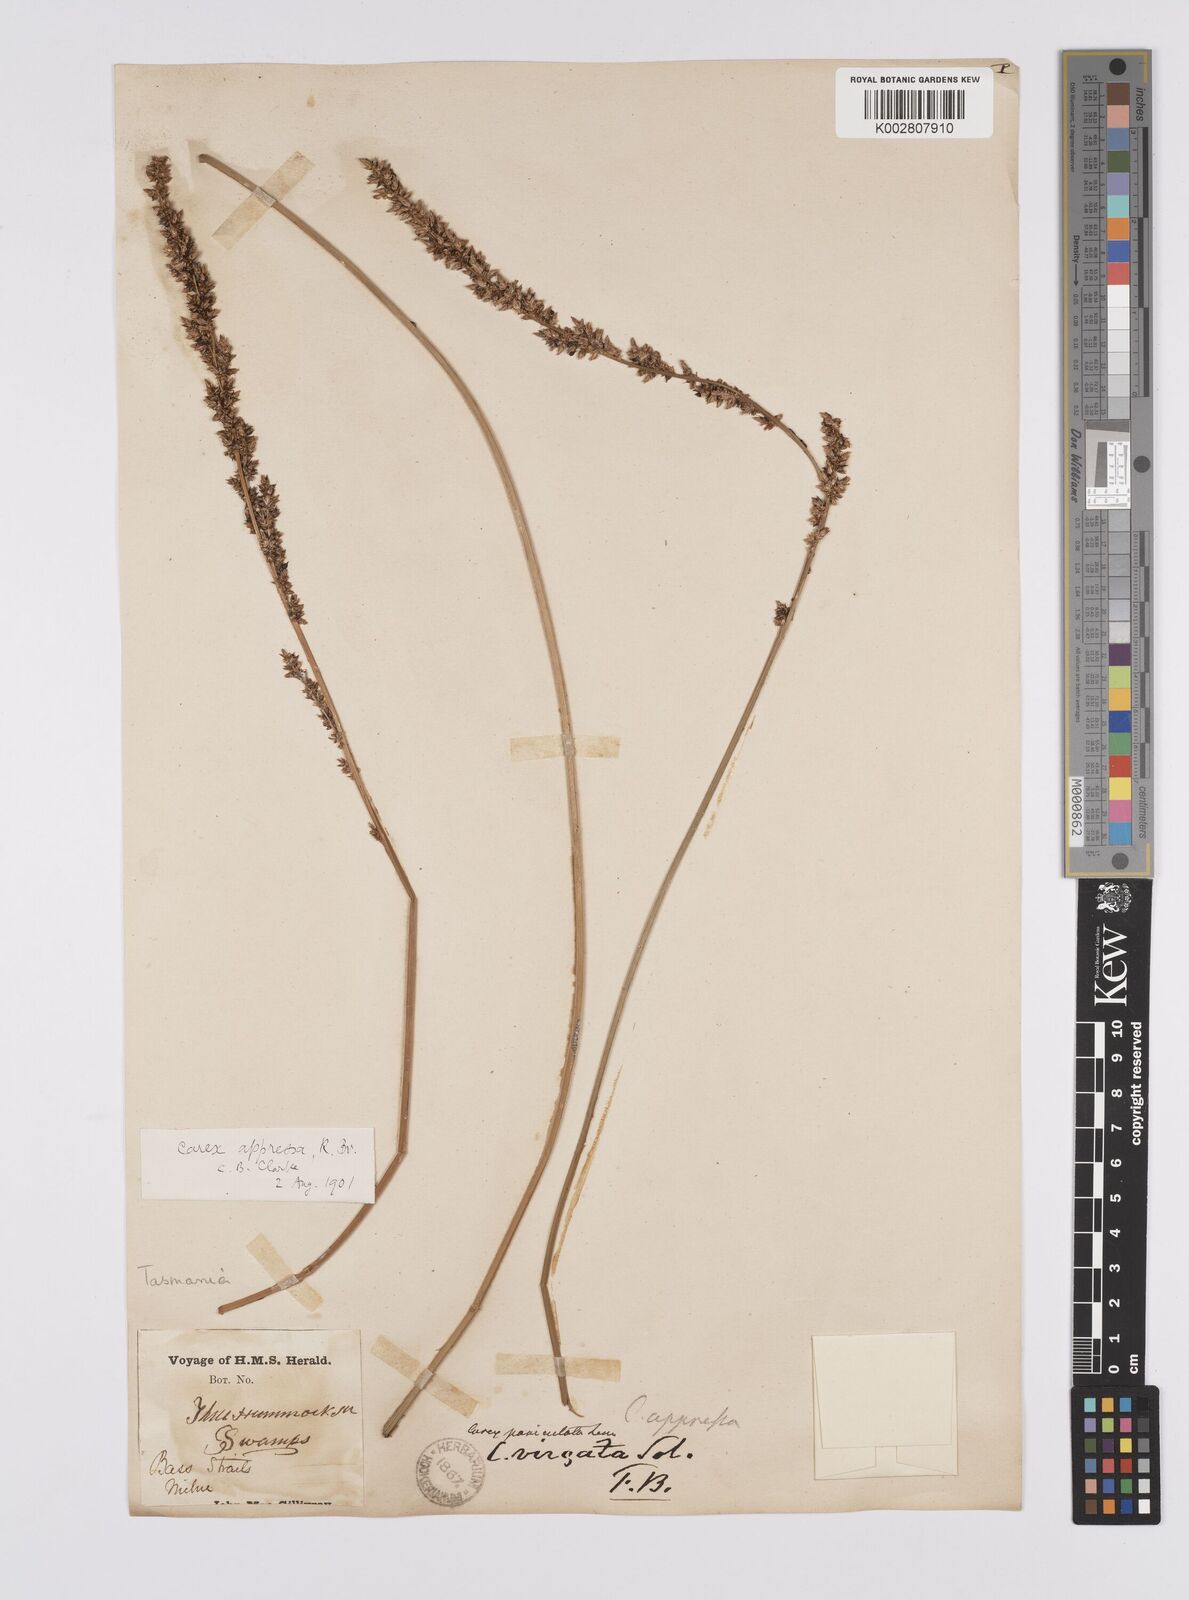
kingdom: Plantae
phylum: Tracheophyta
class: Liliopsida
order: Poales
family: Cyperaceae
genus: Carex
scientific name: Carex appressa
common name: Tussock sedge
